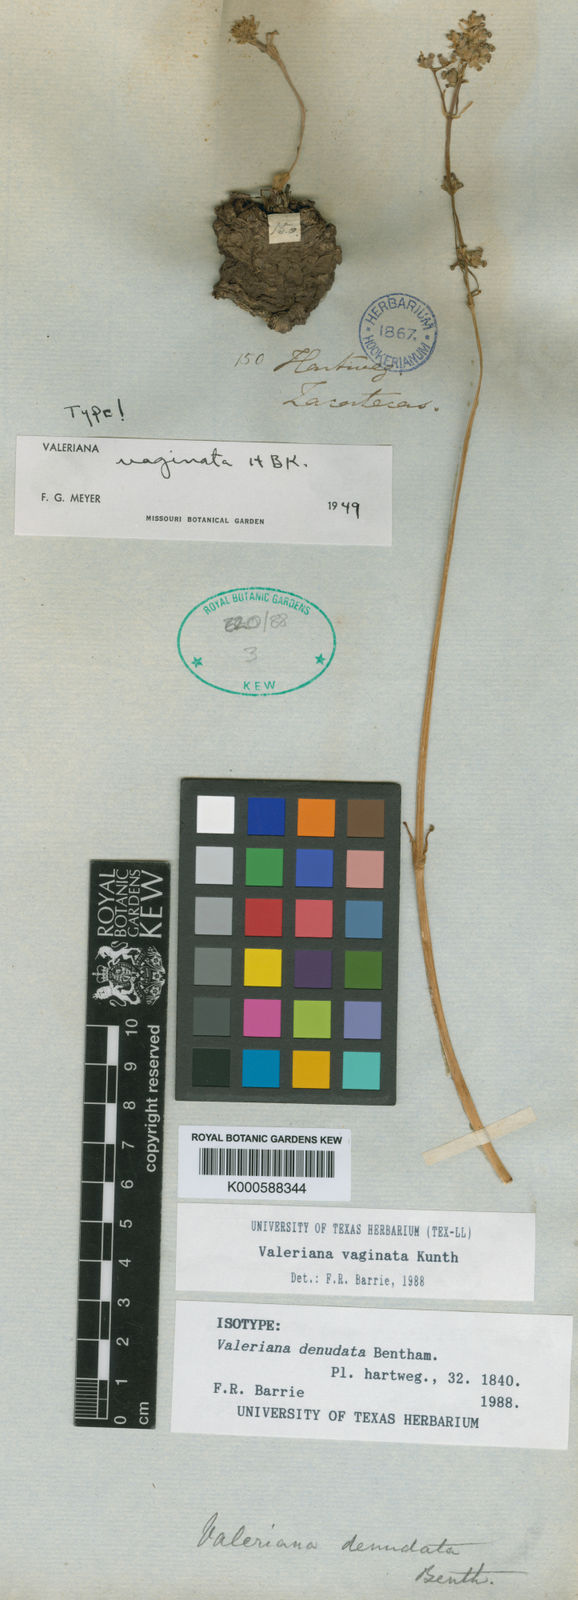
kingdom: Plantae
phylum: Tracheophyta
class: Magnoliopsida
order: Dipsacales
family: Caprifoliaceae
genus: Valeriana
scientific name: Valeriana vaginata
